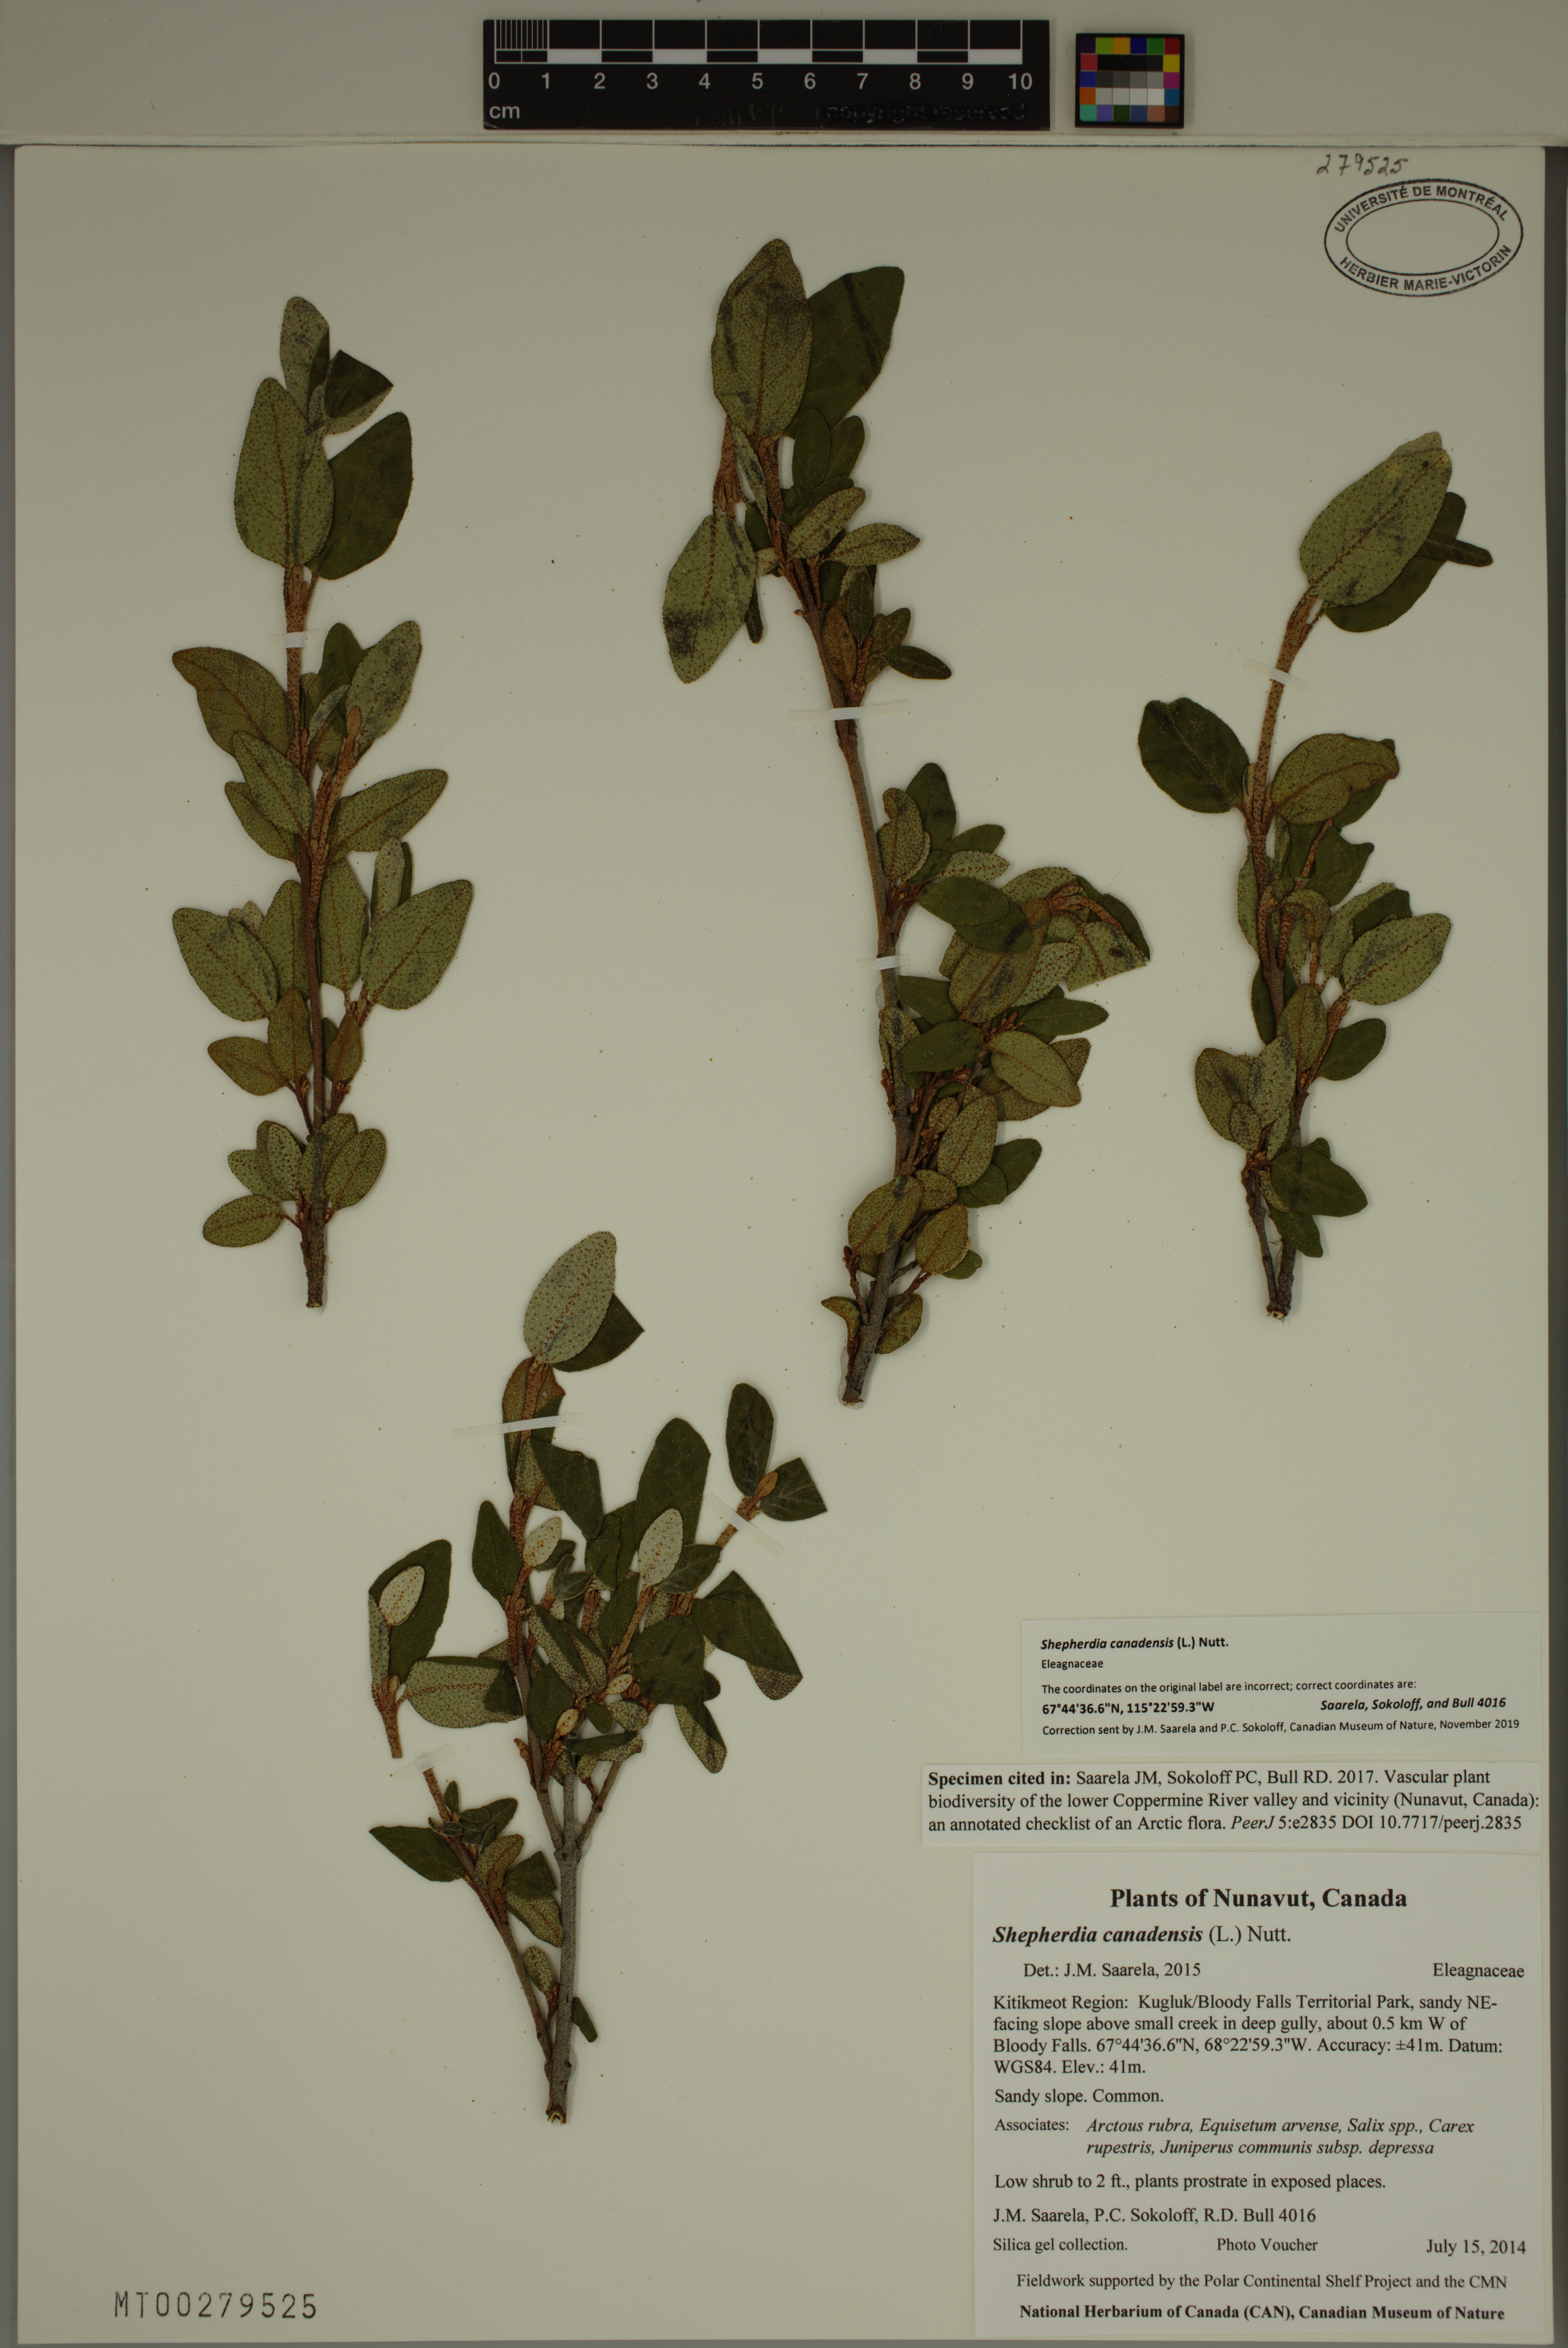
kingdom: Plantae
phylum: Tracheophyta
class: Magnoliopsida
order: Rosales
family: Elaeagnaceae
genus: Shepherdia
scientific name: Shepherdia canadensis
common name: Soapberry
